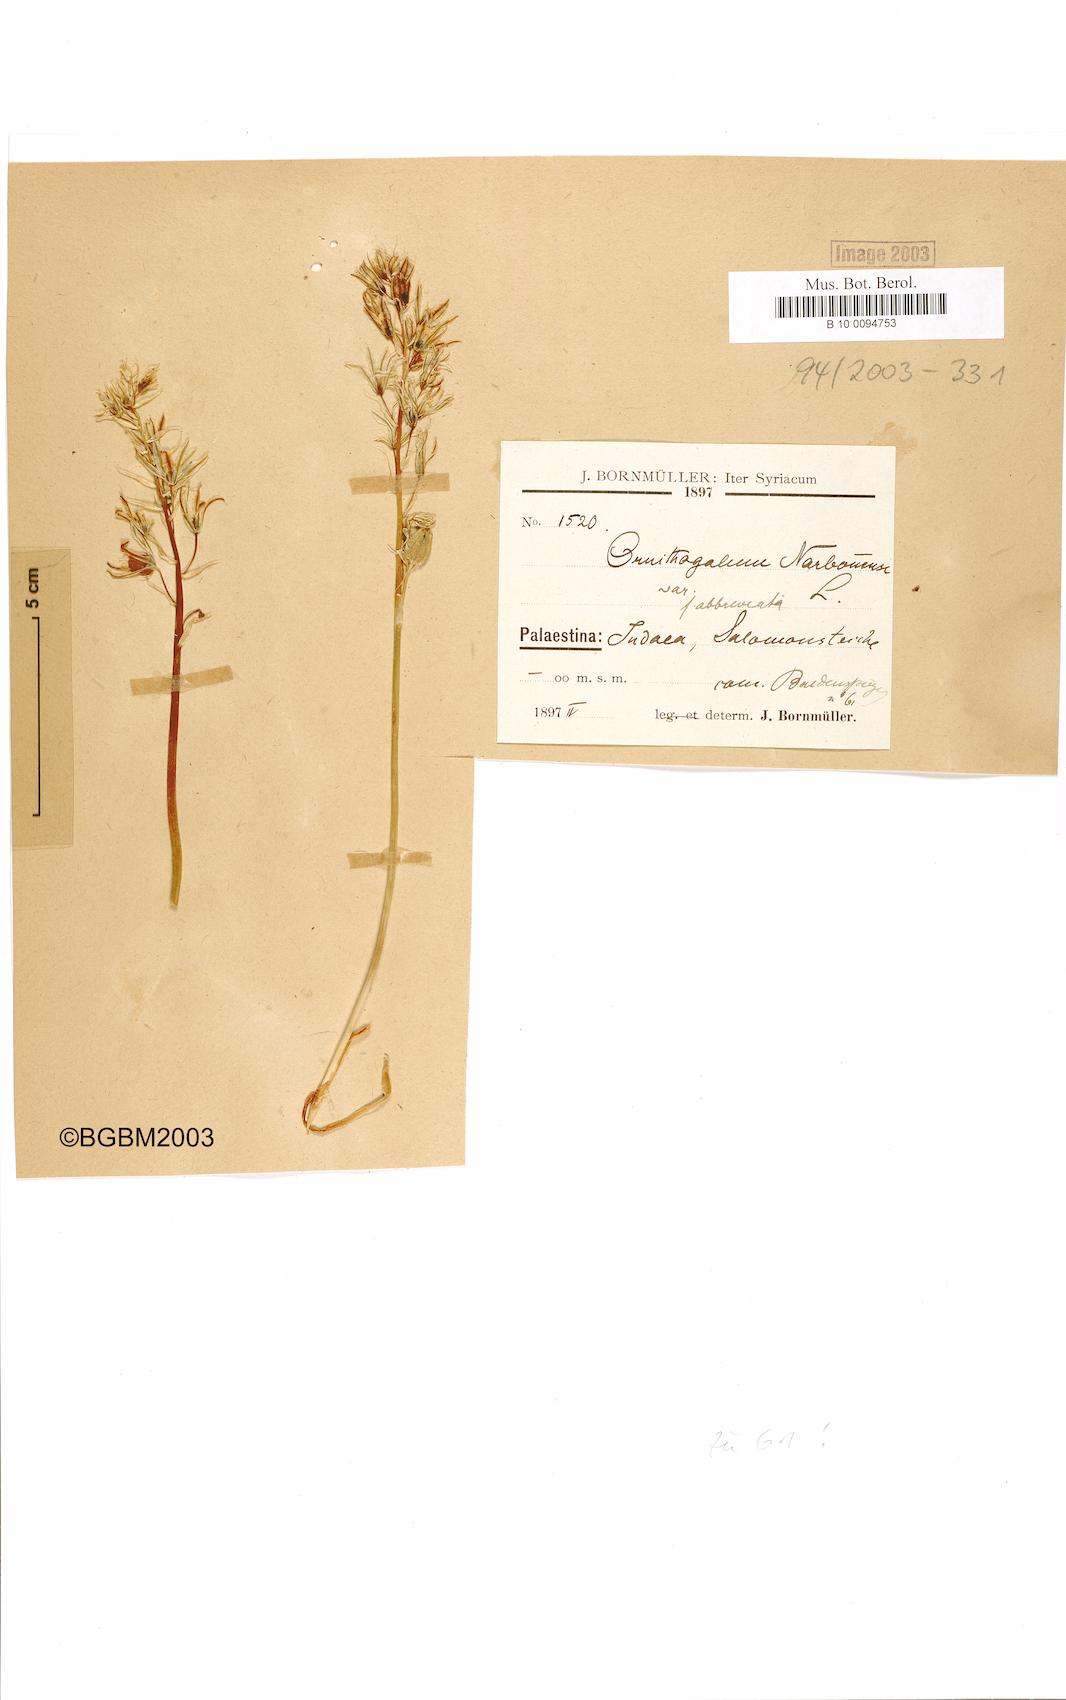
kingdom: Plantae
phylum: Tracheophyta
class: Liliopsida
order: Asparagales
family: Asparagaceae
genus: Ornithogalum
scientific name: Ornithogalum narbonense
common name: Bath-asparagus
